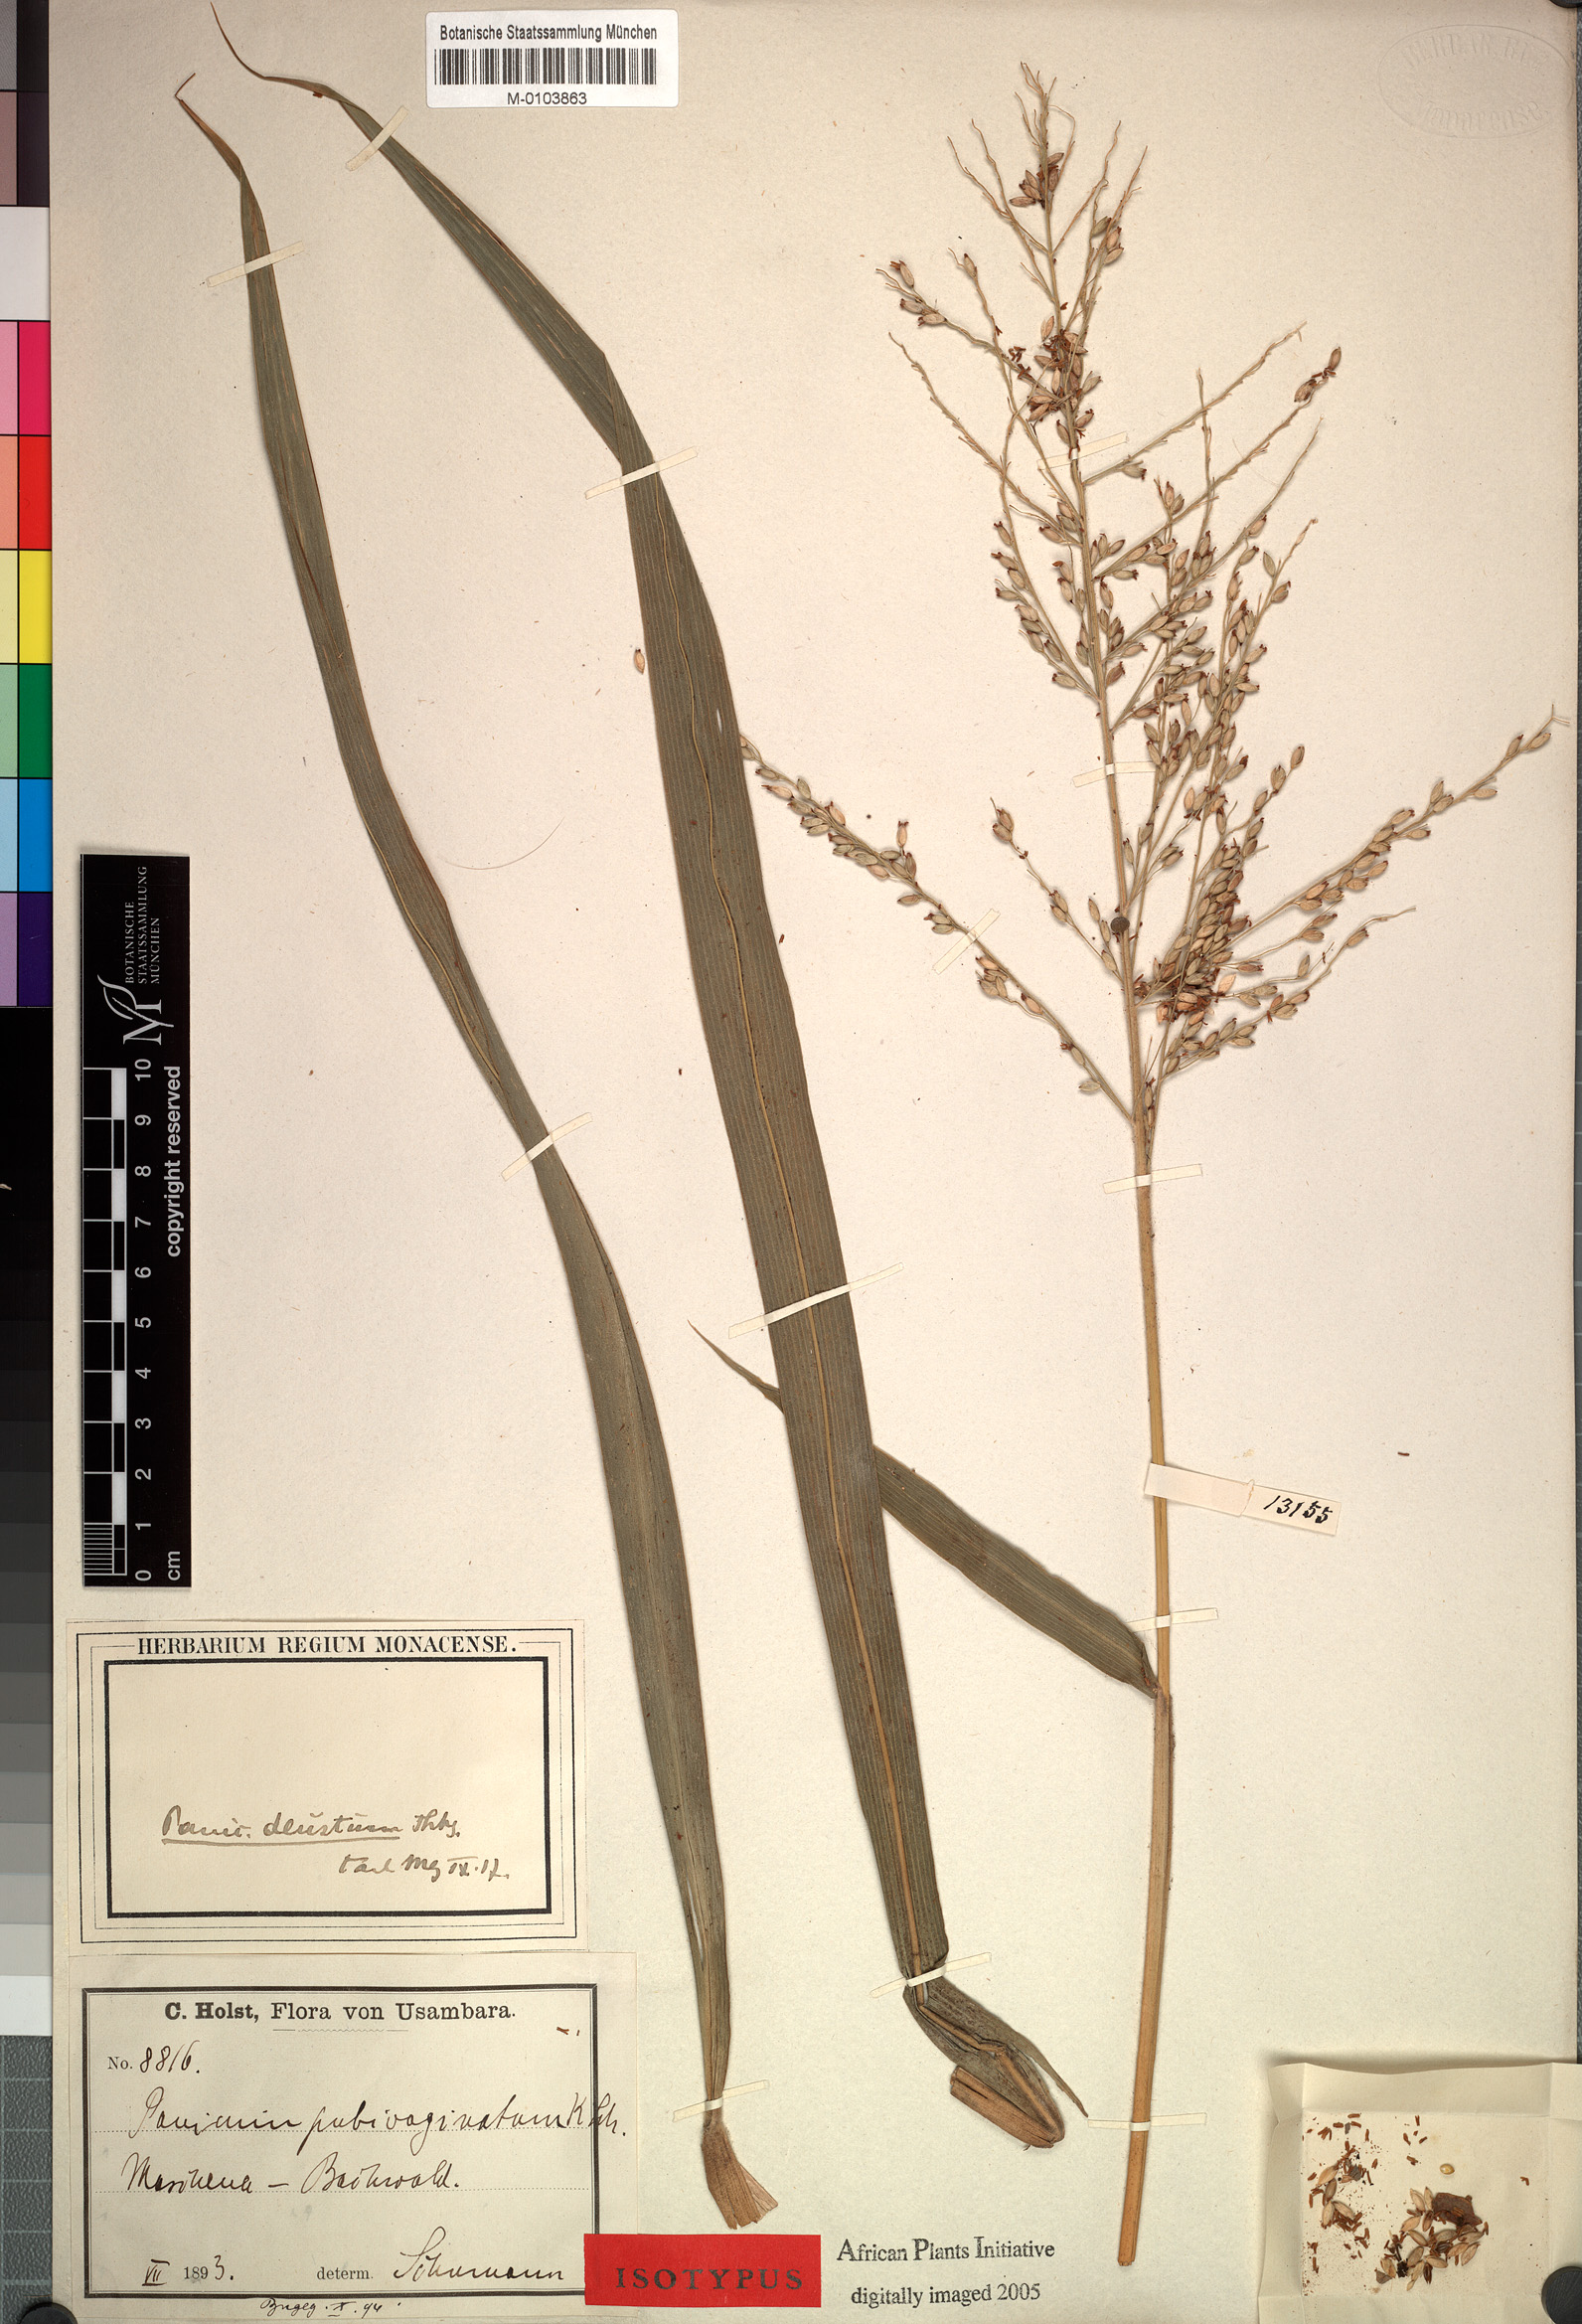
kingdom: Plantae
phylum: Tracheophyta
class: Liliopsida
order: Poales
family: Poaceae
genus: Panicum
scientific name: Panicum deustum
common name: Reed panicum
